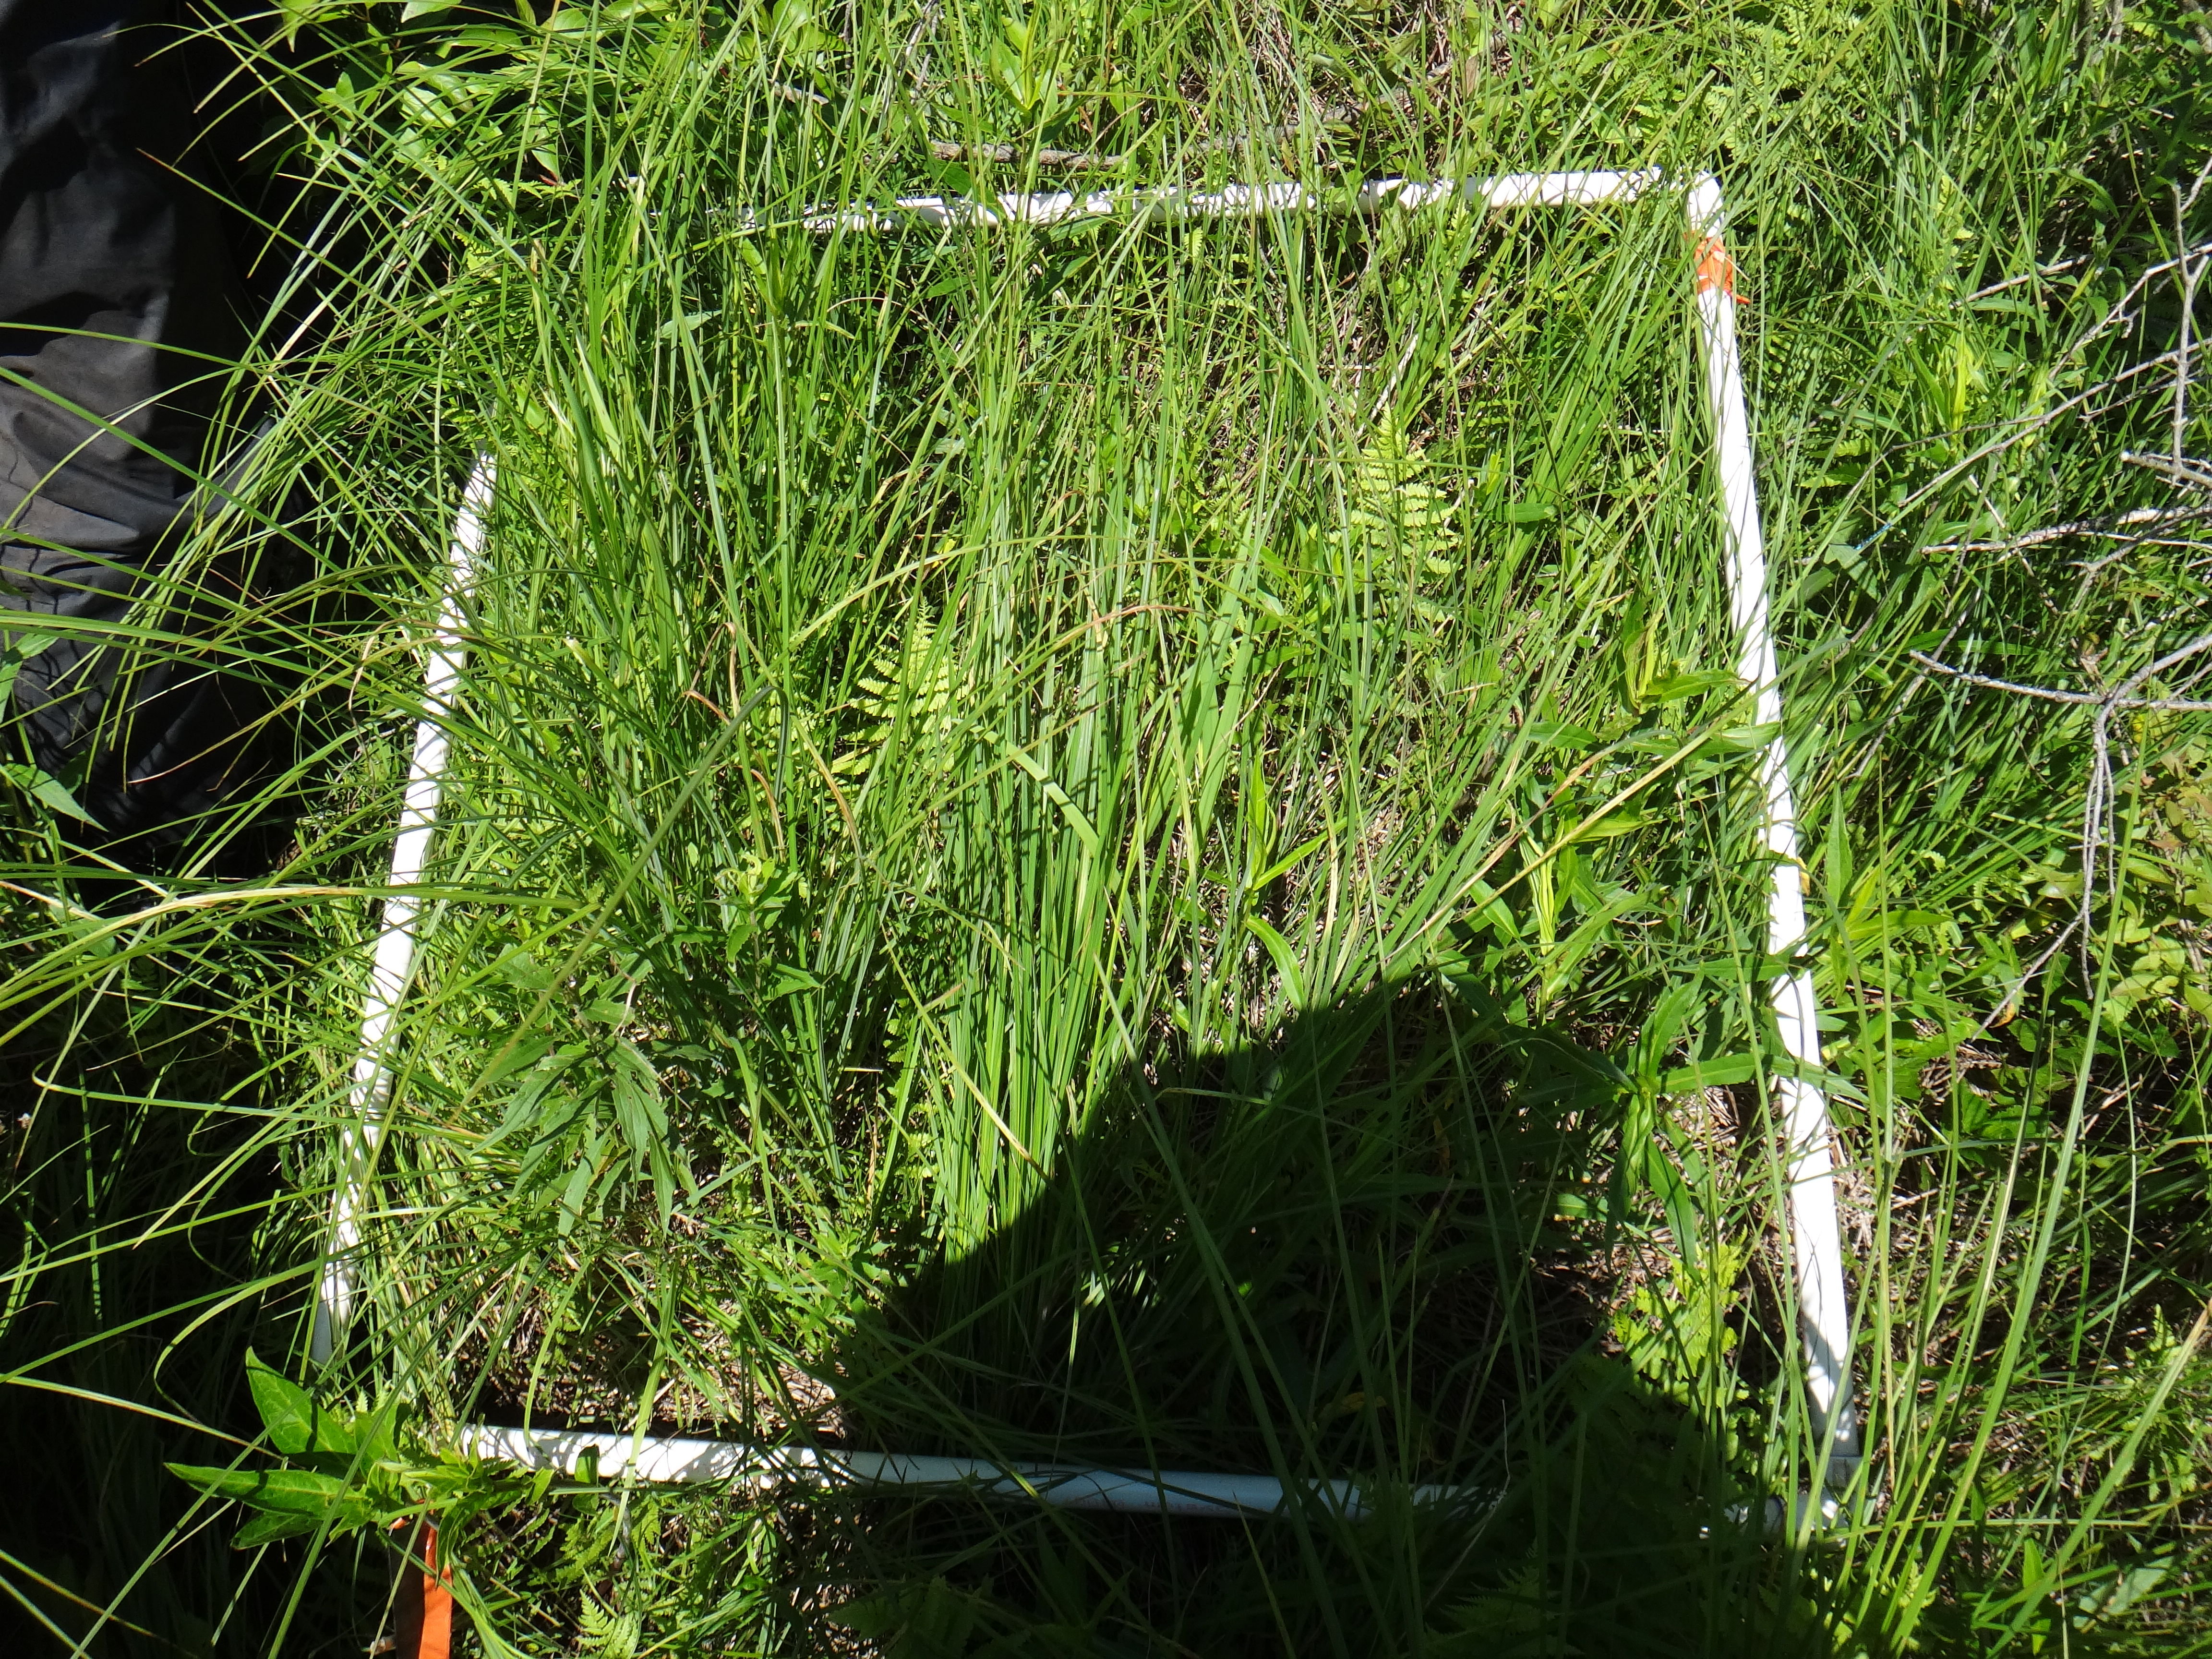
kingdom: Plantae
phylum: Tracheophyta
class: Magnoliopsida
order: Asterales
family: Asteraceae
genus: Symphyotrichum
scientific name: Symphyotrichum firmum
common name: Shining aster
